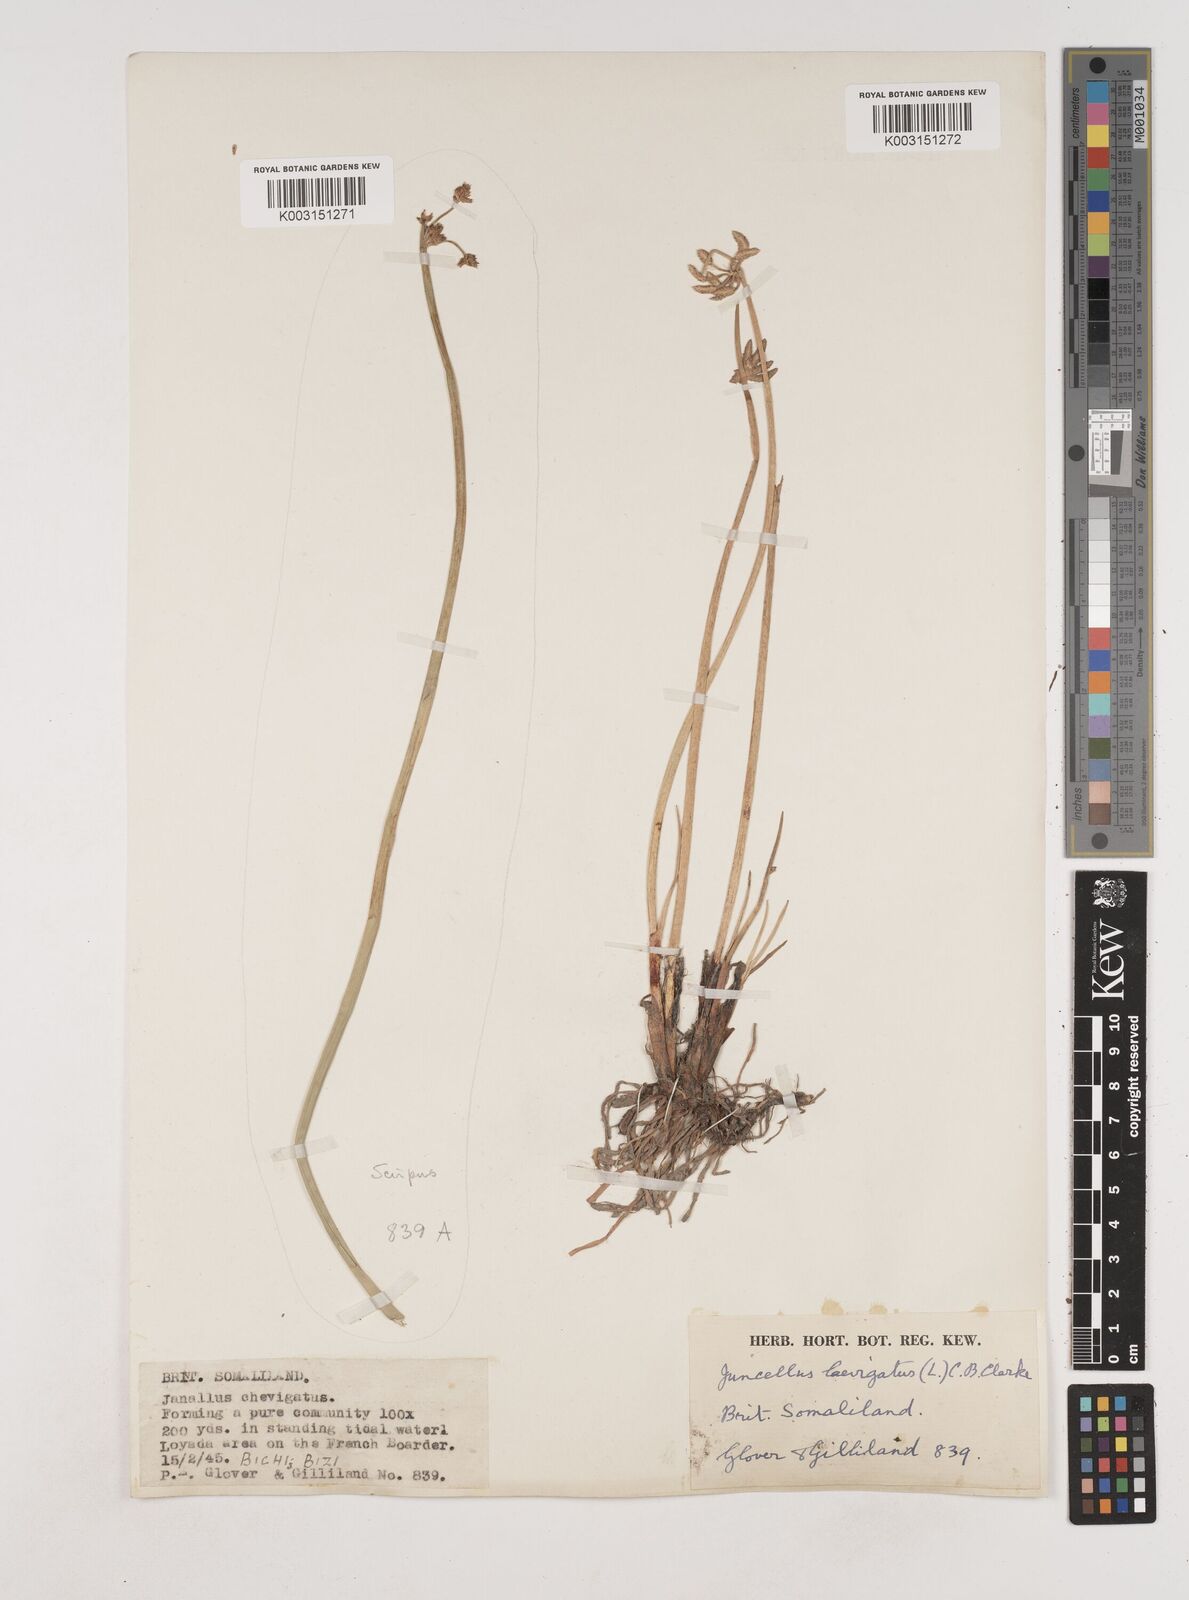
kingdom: Plantae
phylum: Tracheophyta
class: Liliopsida
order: Poales
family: Cyperaceae
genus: Cyperus
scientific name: Cyperus laevigatus
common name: Smooth flat sedge
